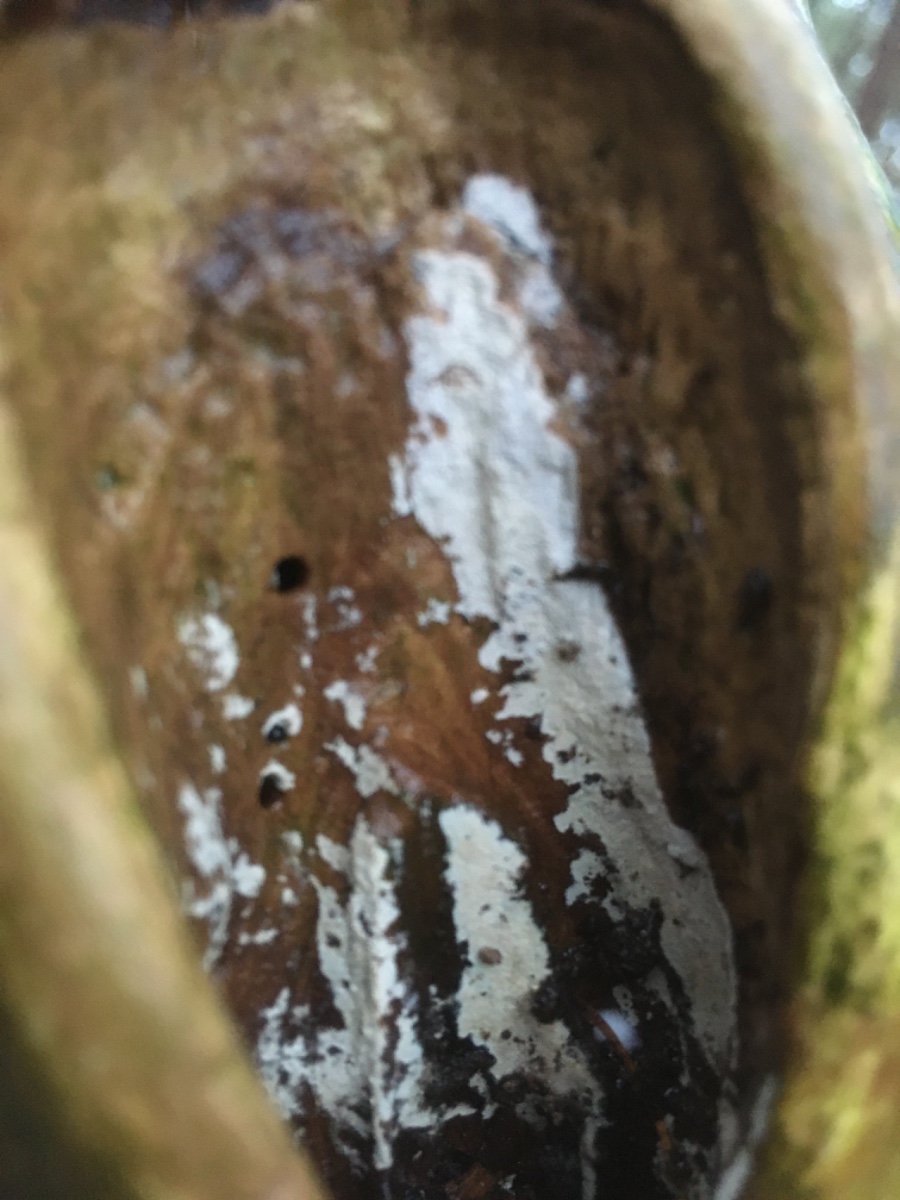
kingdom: Fungi
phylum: Basidiomycota
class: Agaricomycetes
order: Corticiales
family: Corticiaceae
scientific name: Corticiaceae
